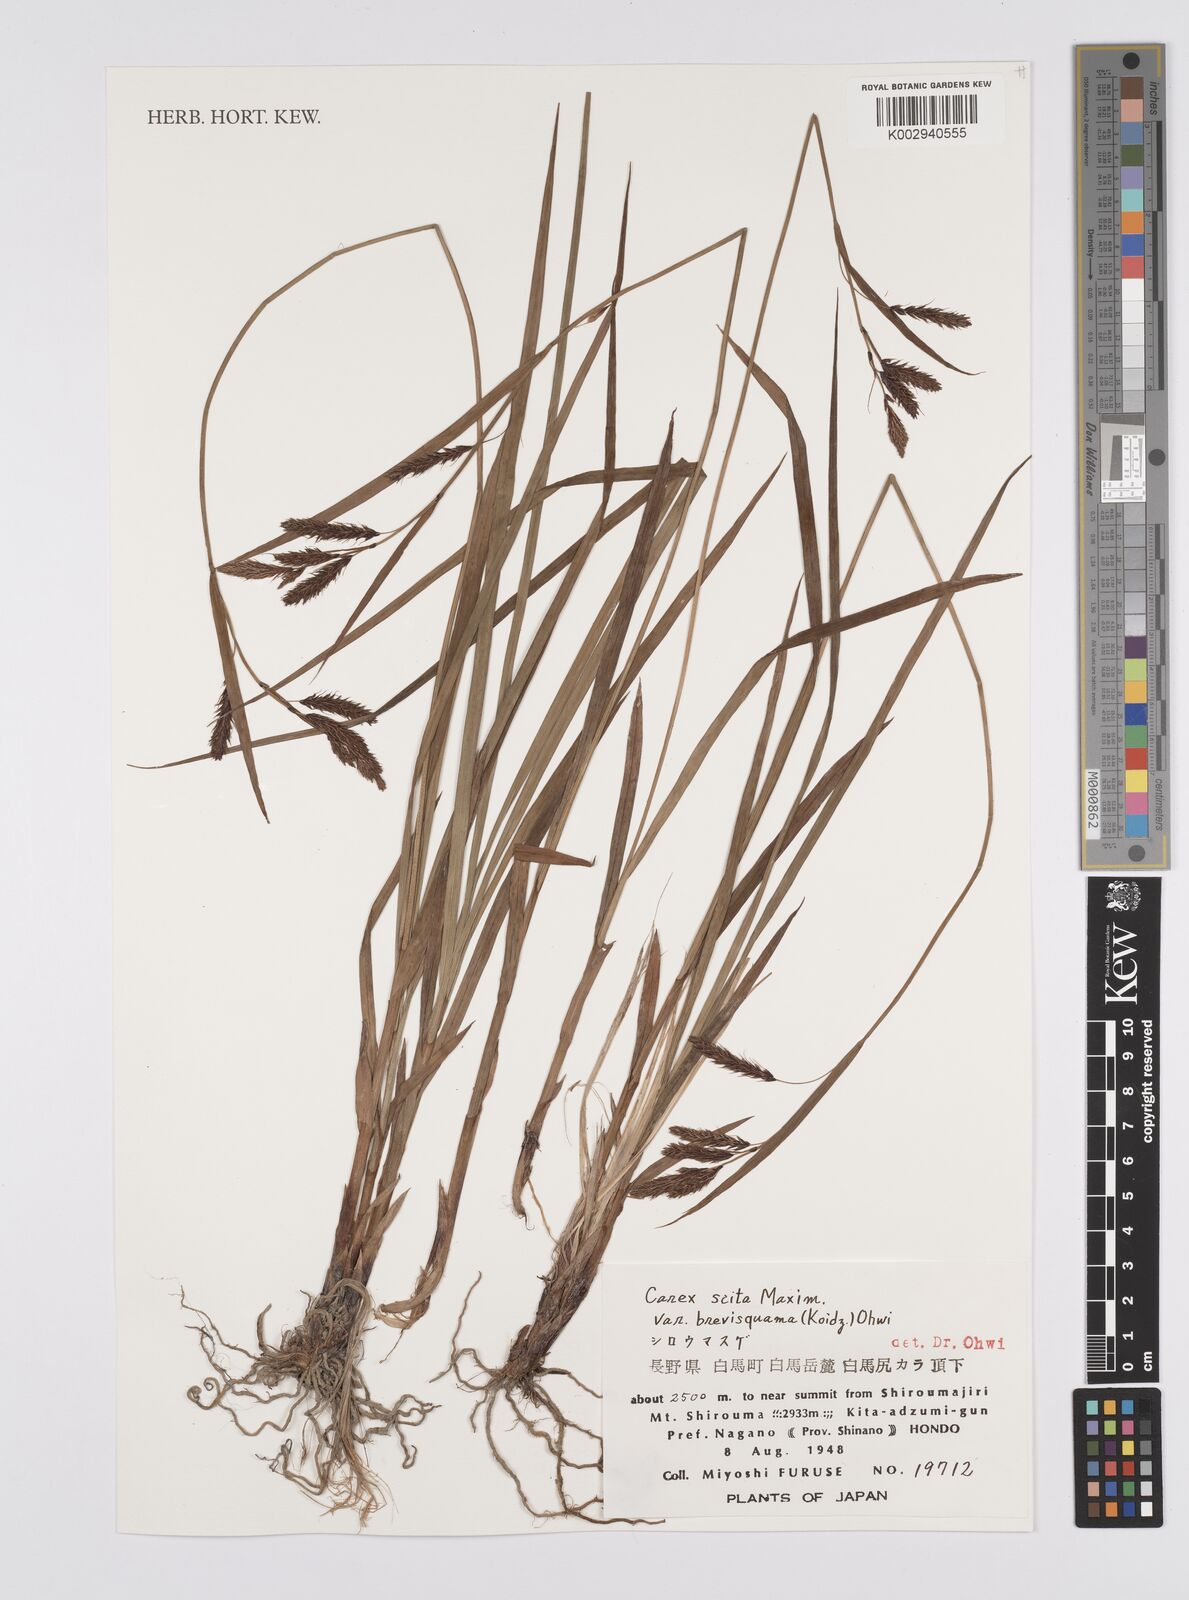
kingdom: Plantae
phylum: Tracheophyta
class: Liliopsida
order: Poales
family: Cyperaceae
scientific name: Cyperaceae
